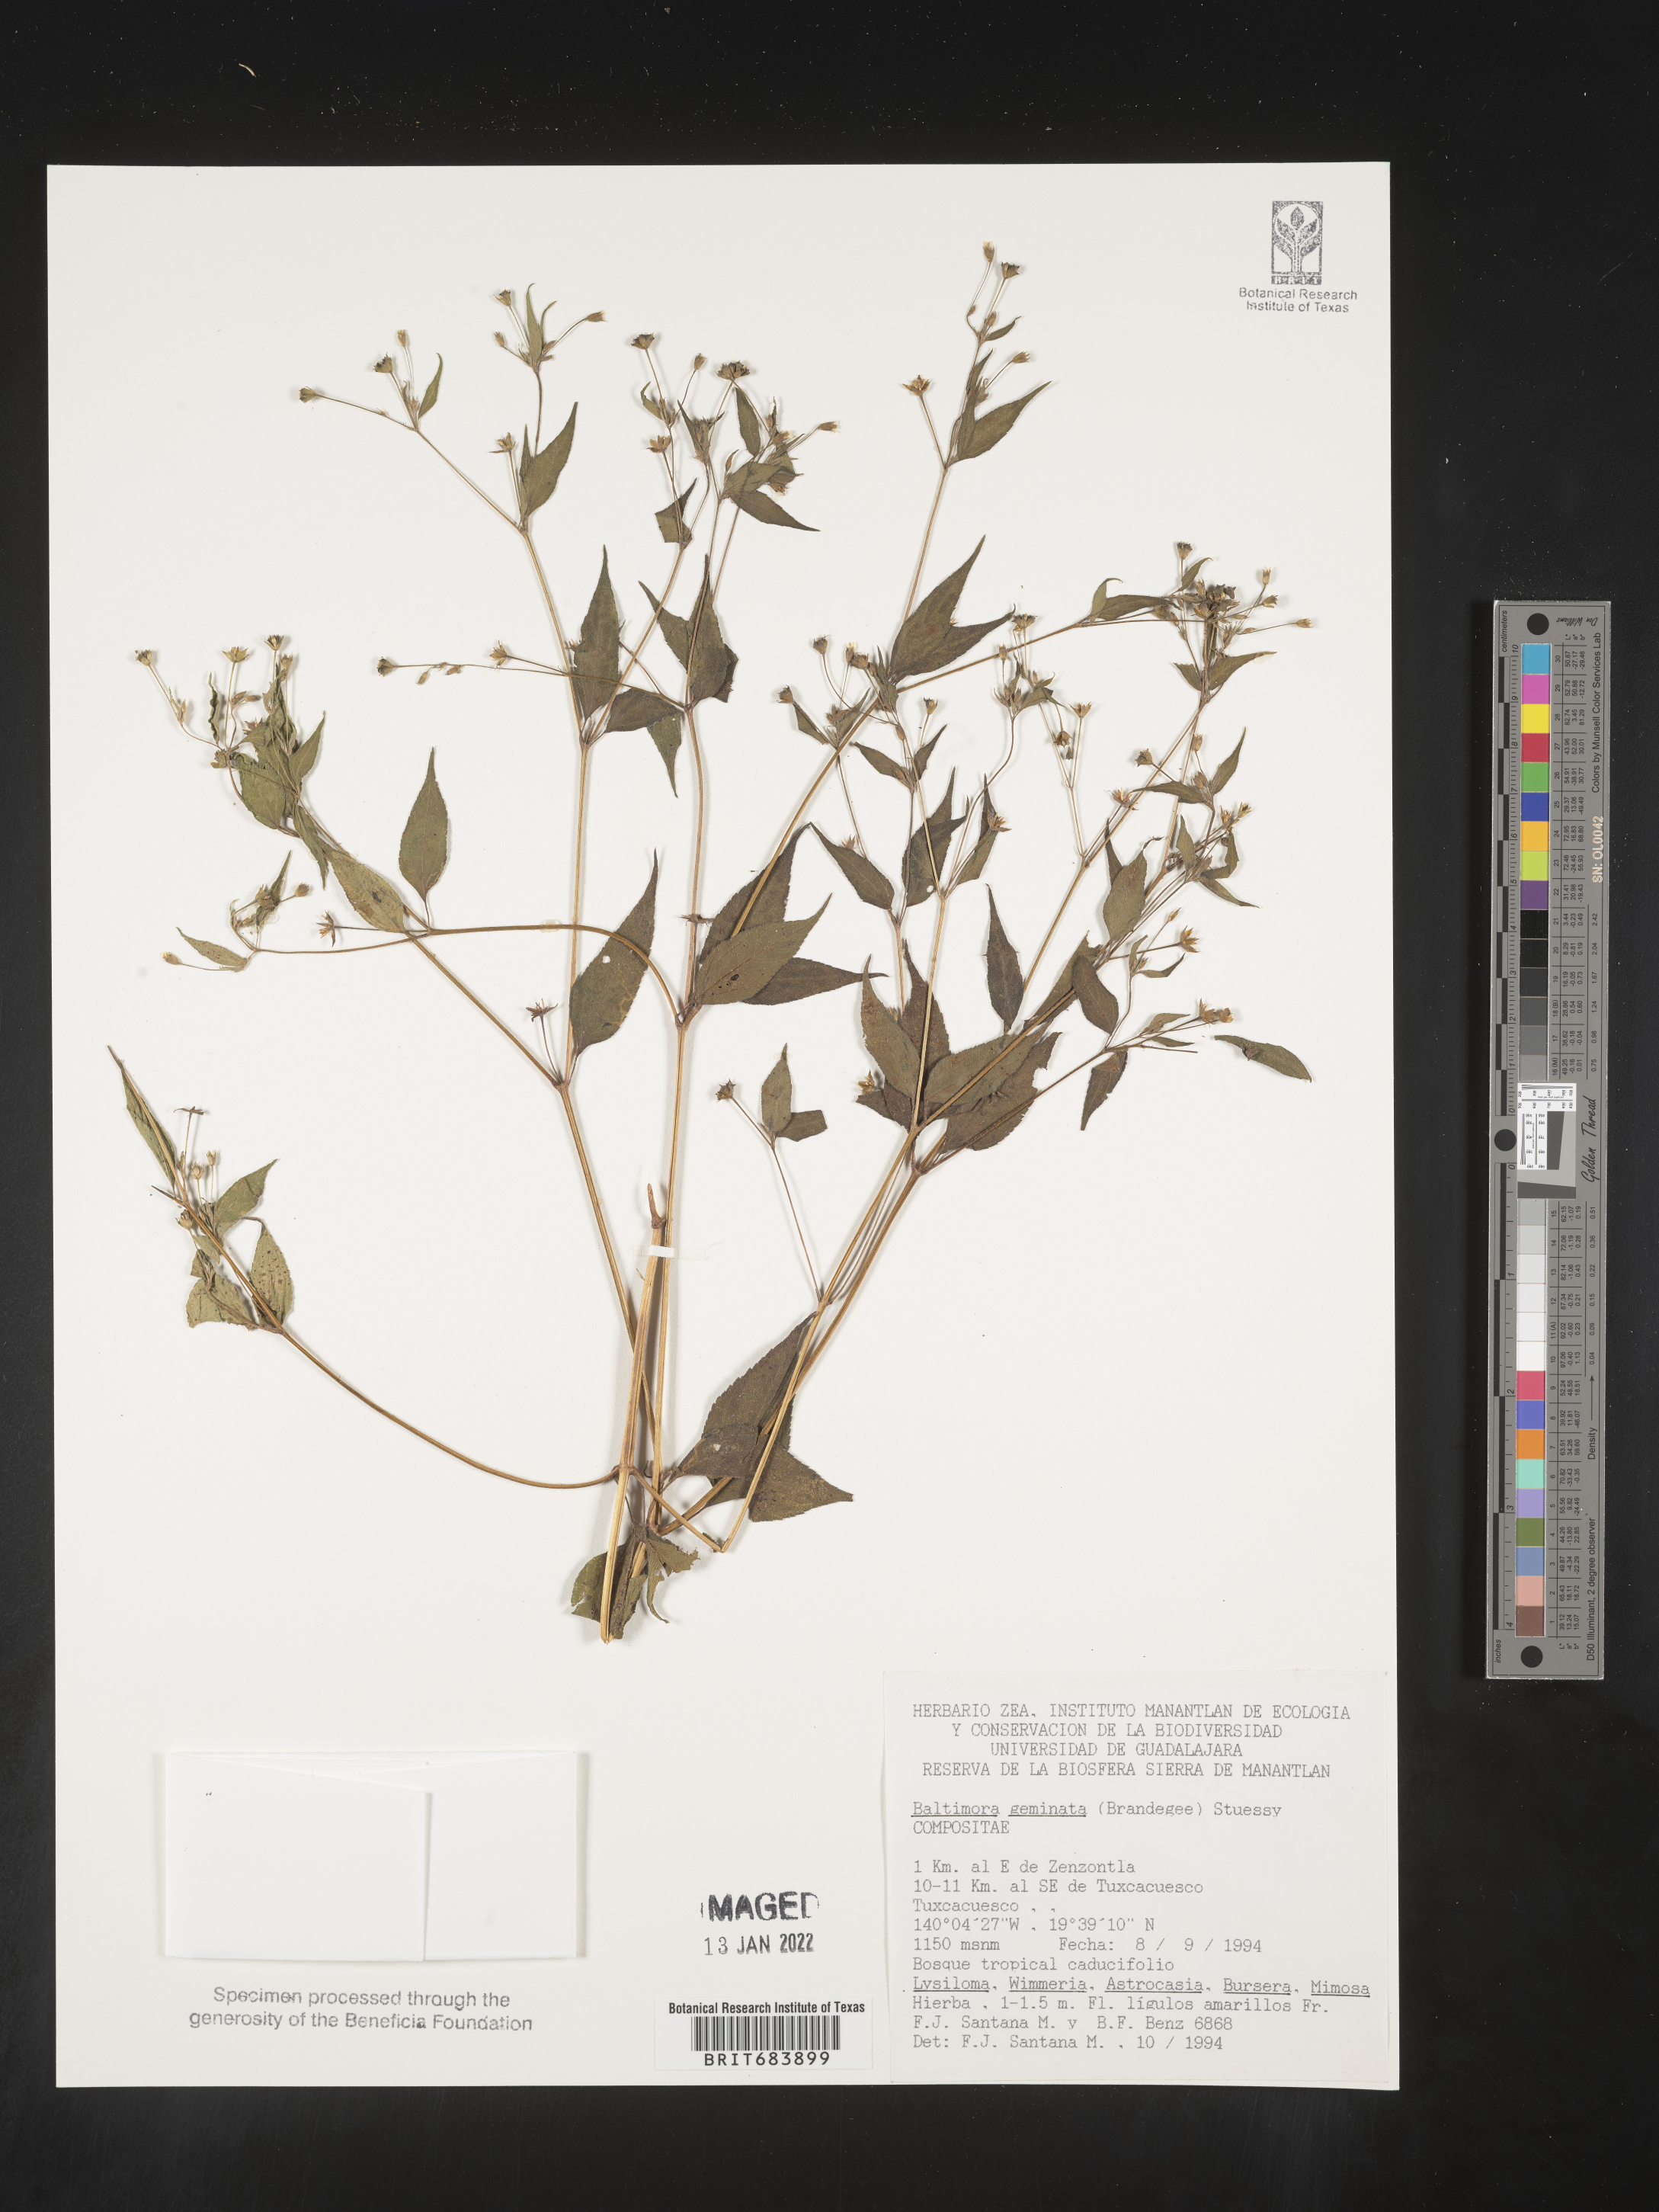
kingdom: Plantae
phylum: Tracheophyta
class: Magnoliopsida
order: Asterales
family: Asteraceae
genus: Baltimora
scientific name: Baltimora
